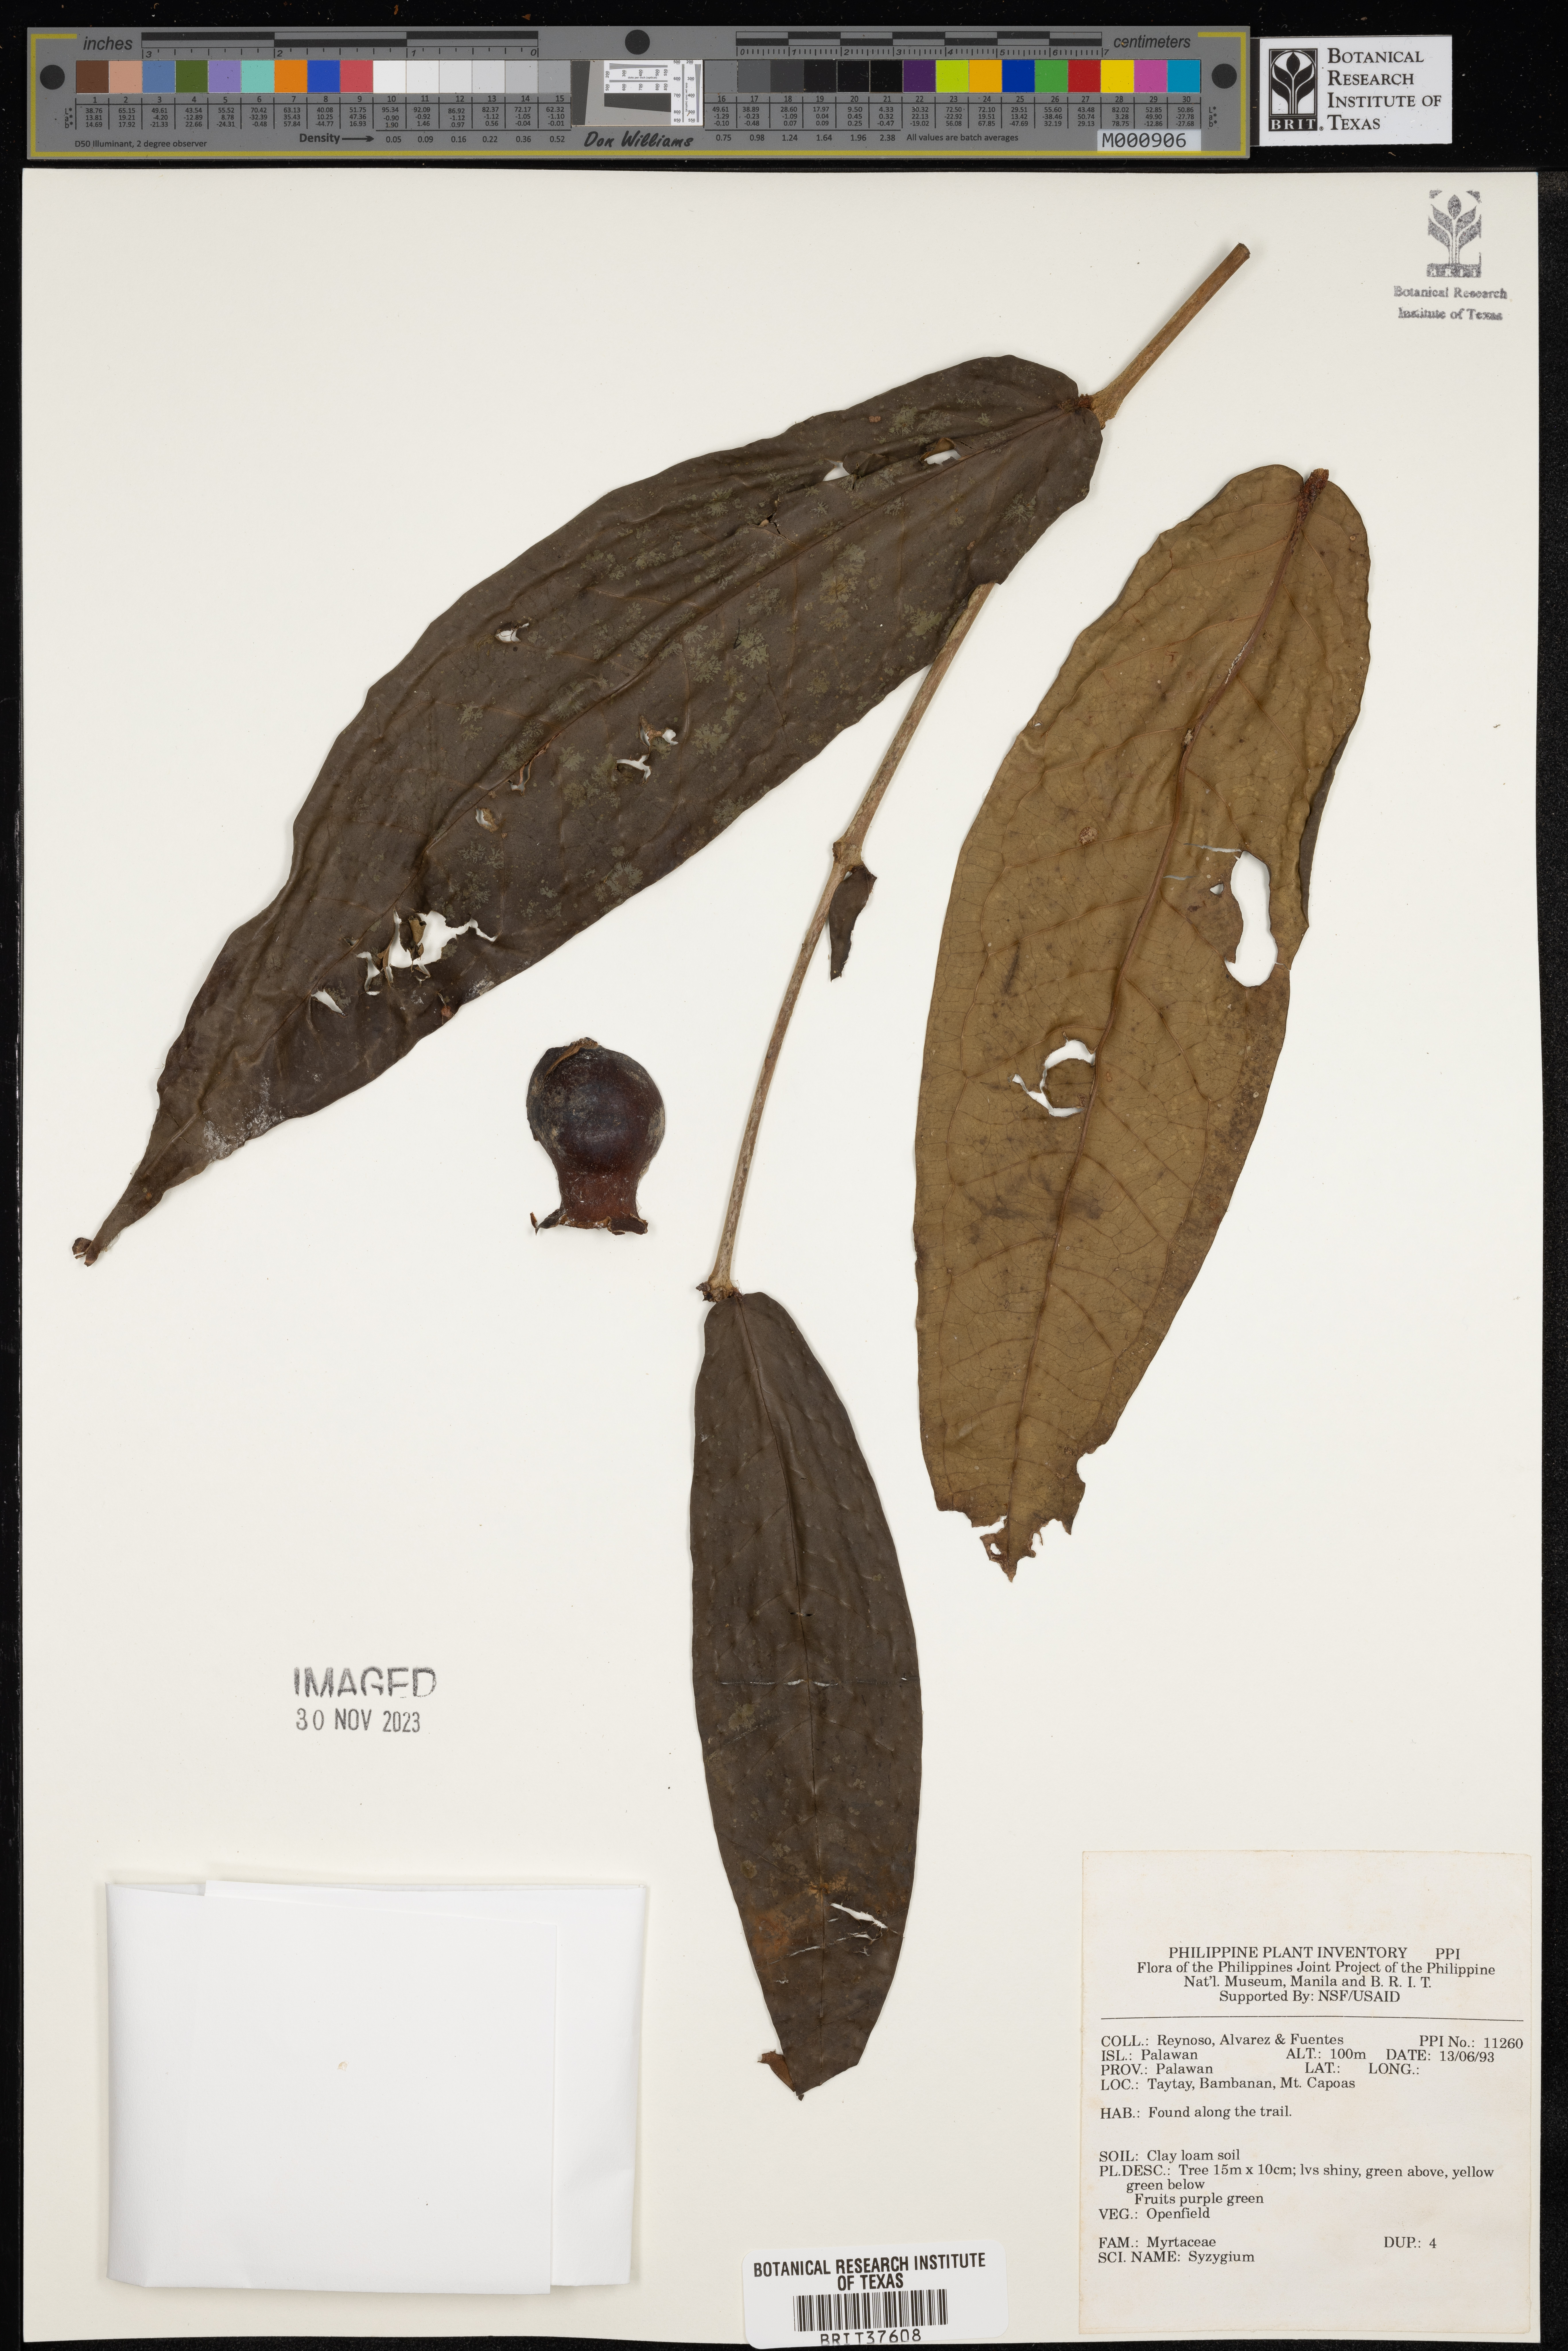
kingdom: Plantae
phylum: Tracheophyta
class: Magnoliopsida
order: Myrtales
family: Myrtaceae
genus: Syzygium
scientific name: Syzygium
